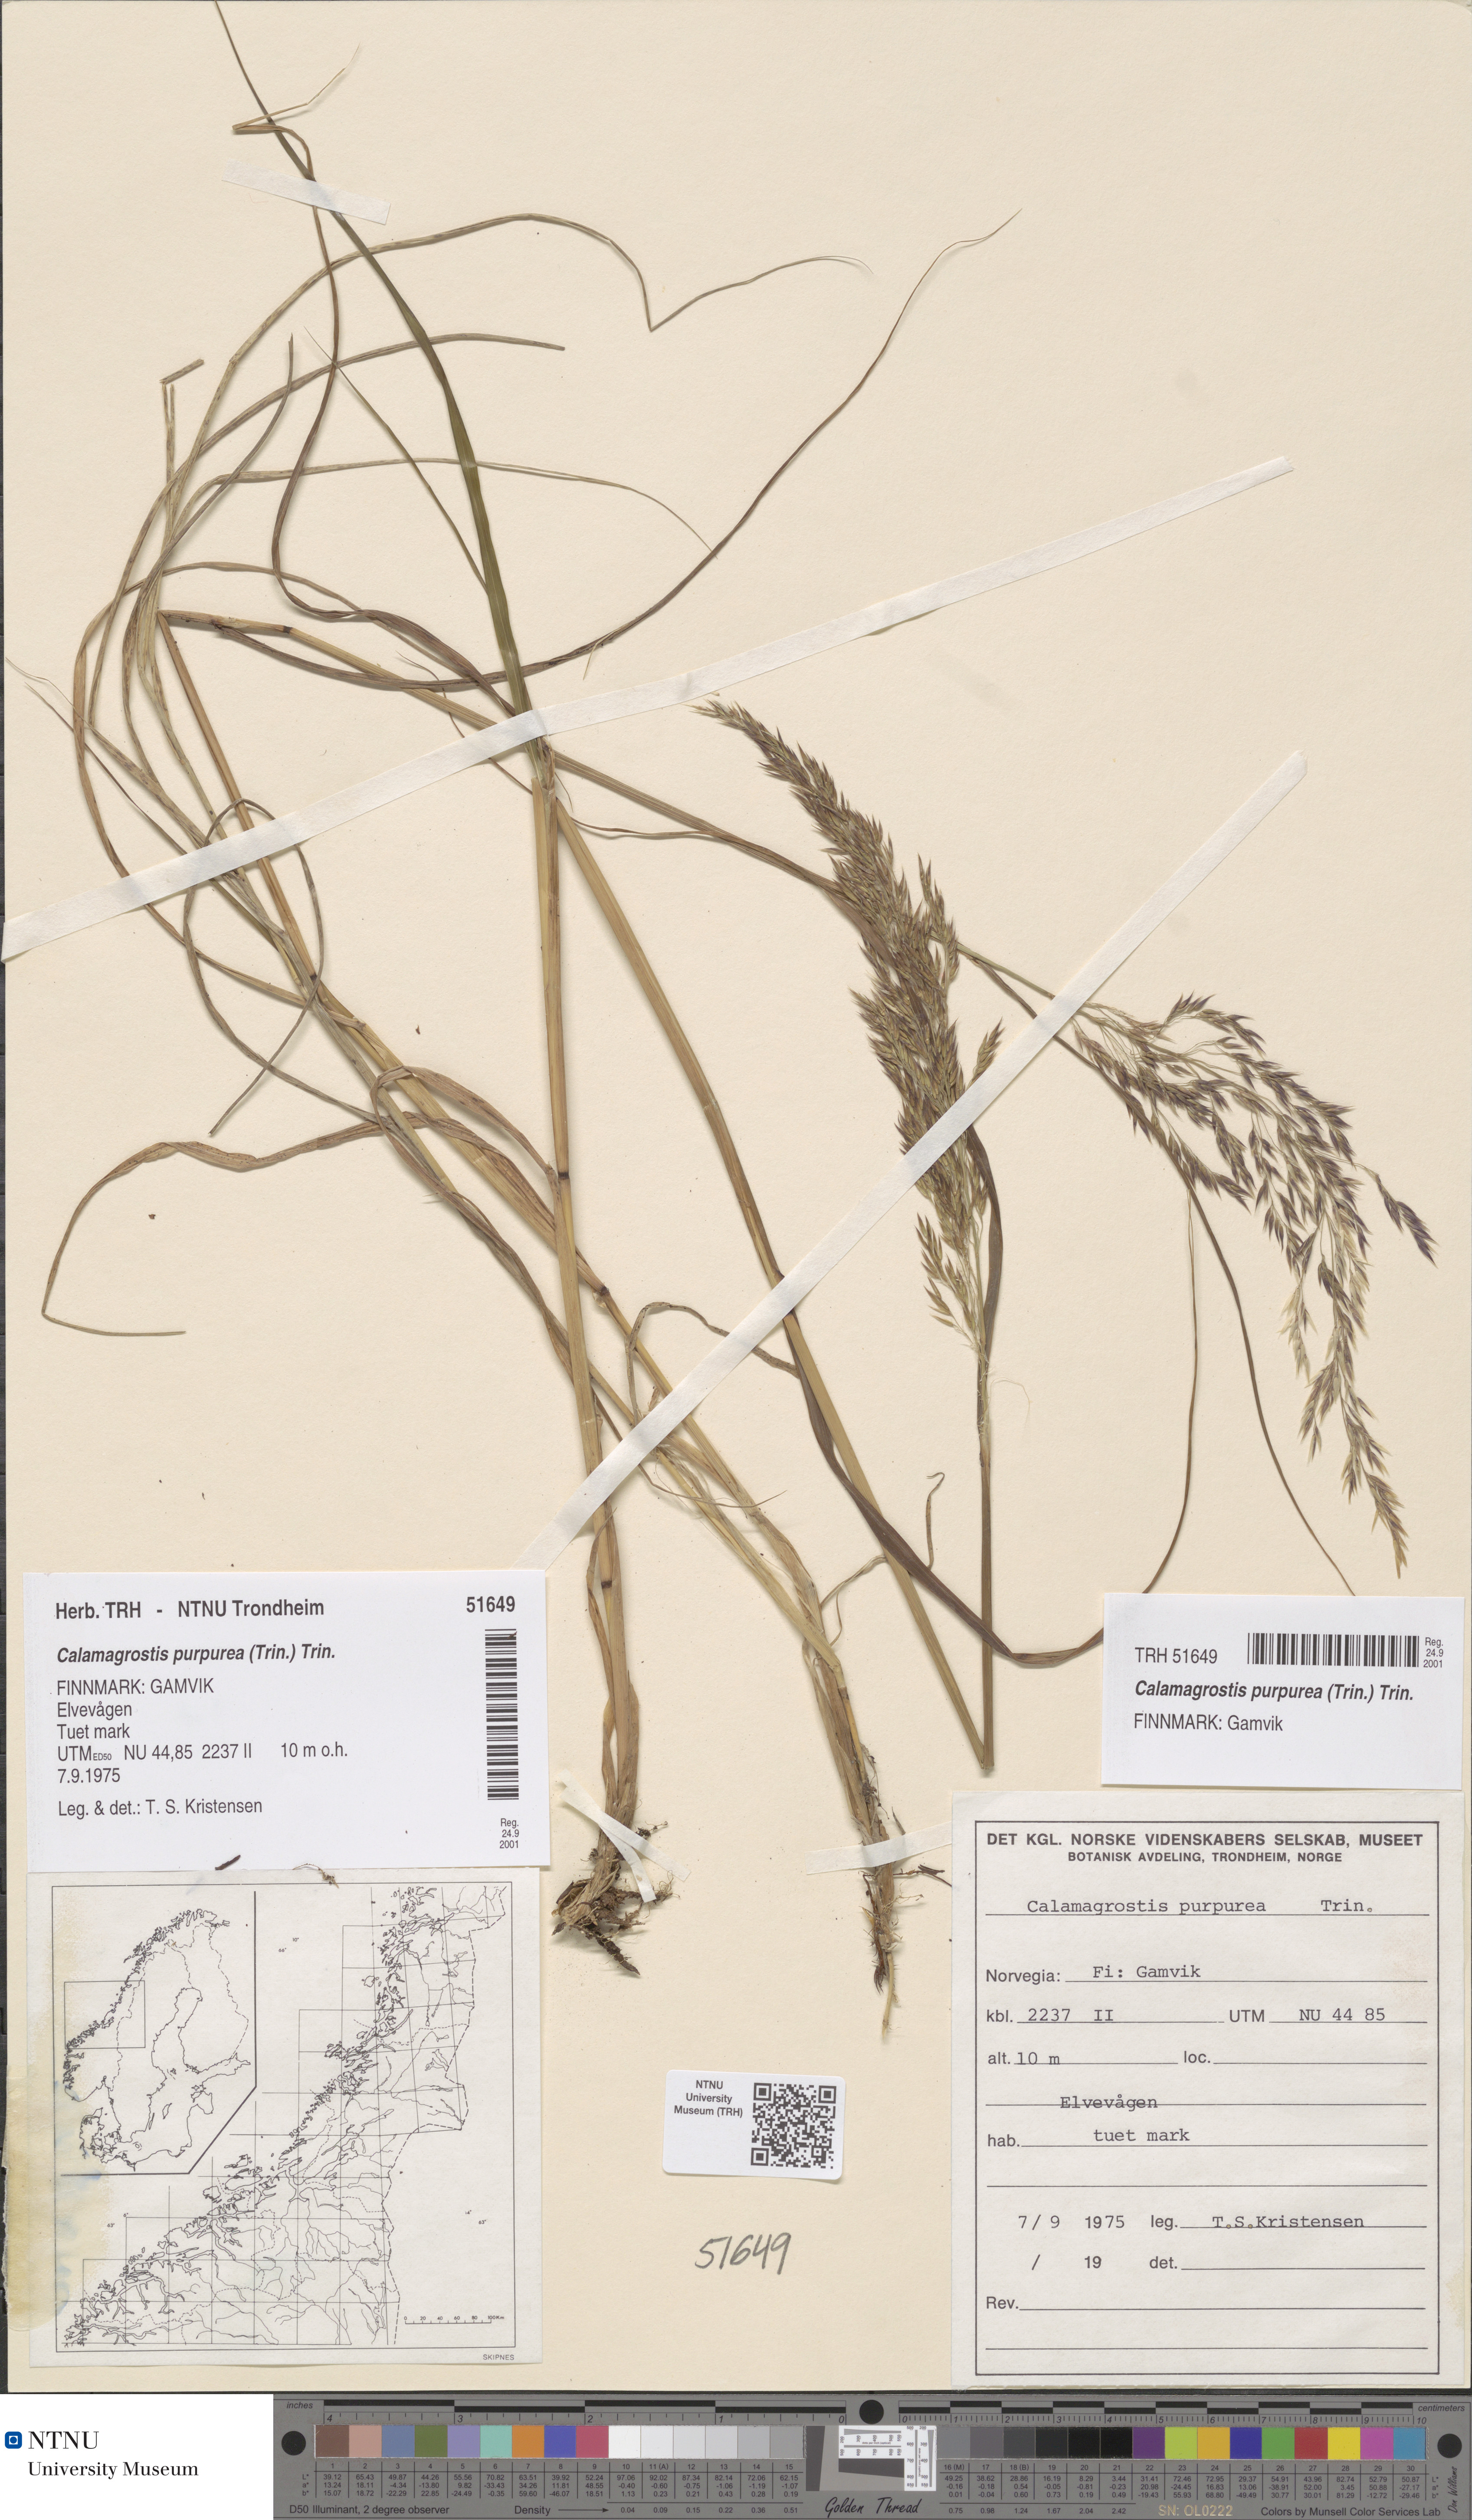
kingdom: Plantae
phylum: Tracheophyta
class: Liliopsida
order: Poales
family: Poaceae
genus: Calamagrostis
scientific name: Calamagrostis purpurea
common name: Scandinavian small-reed
